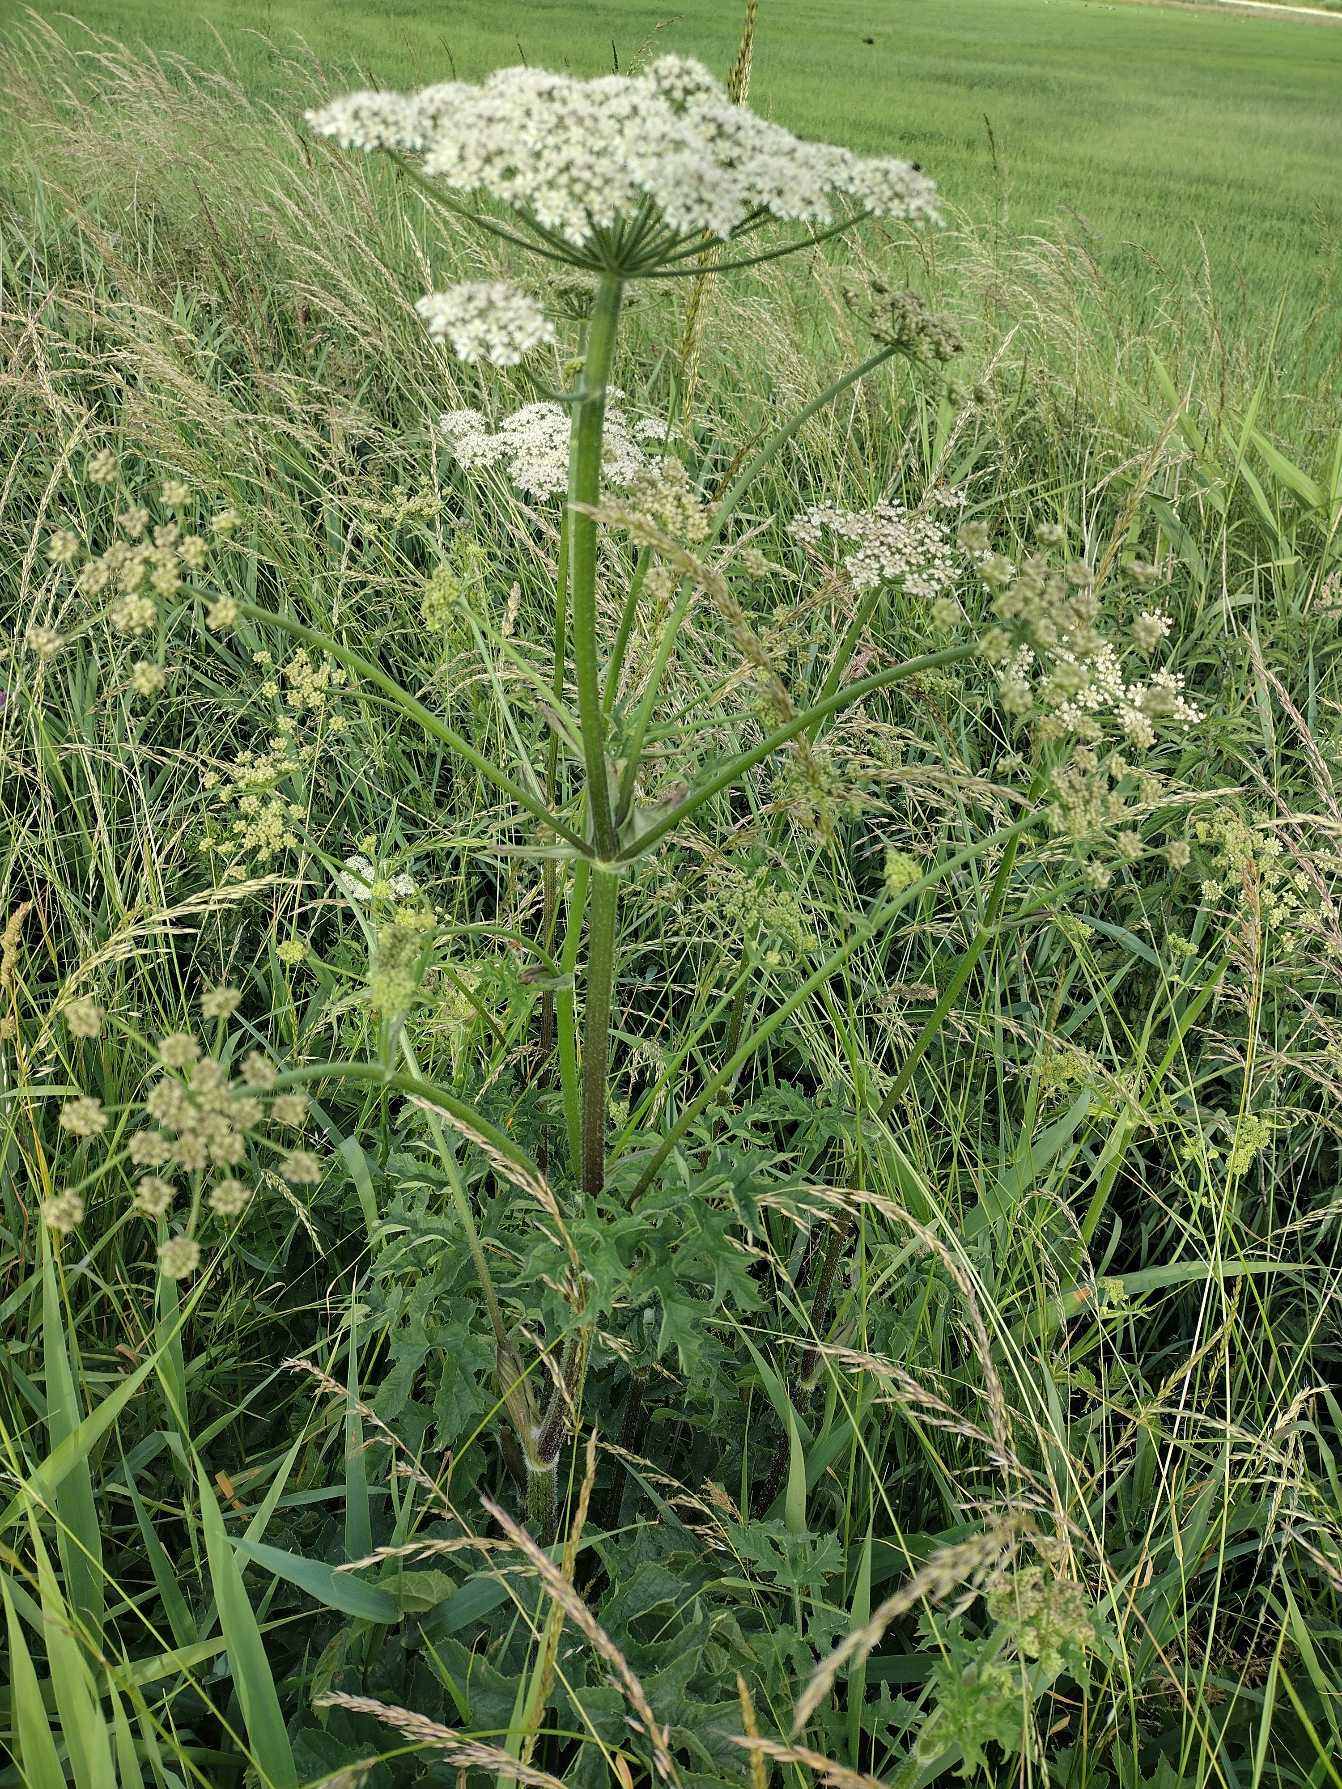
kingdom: Plantae
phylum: Tracheophyta
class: Magnoliopsida
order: Apiales
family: Apiaceae
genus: Heracleum
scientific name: Heracleum sphondylium
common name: Almindelig bjørneklo
